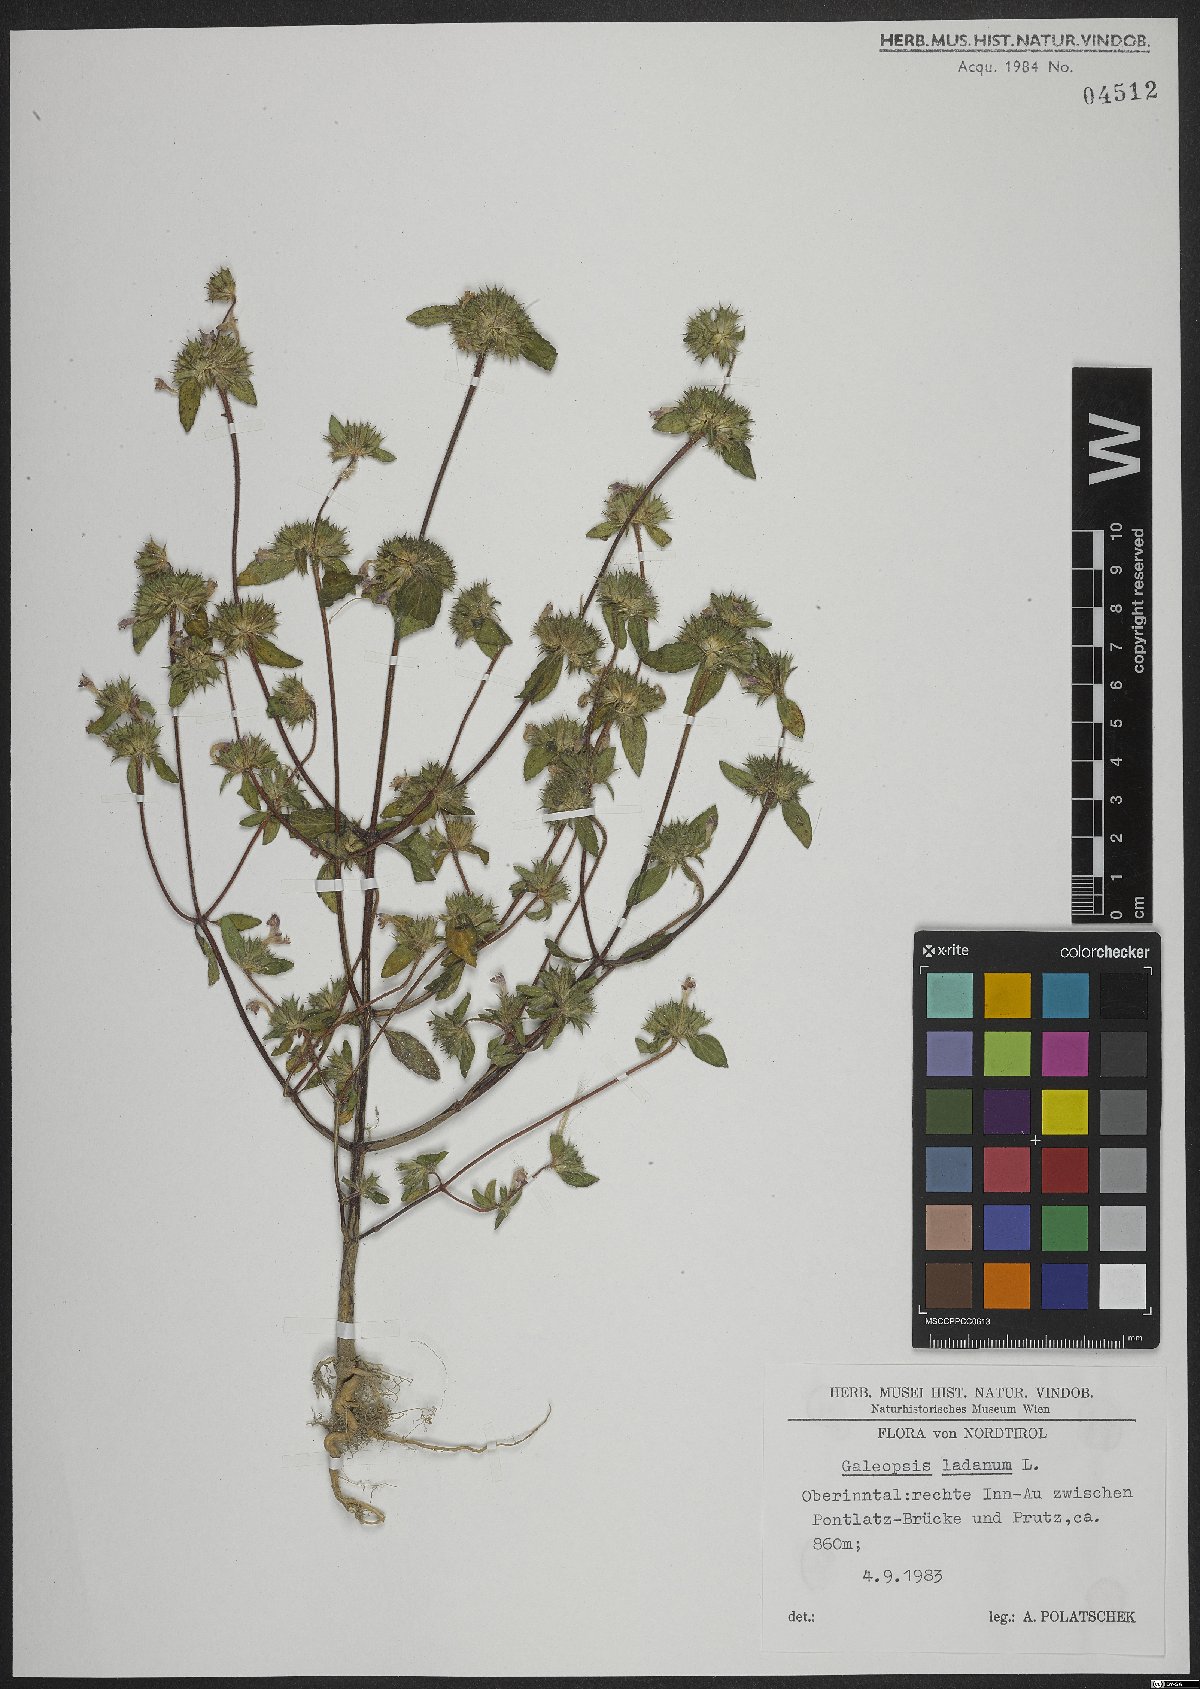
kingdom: Plantae
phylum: Tracheophyta
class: Magnoliopsida
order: Lamiales
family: Lamiaceae
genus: Galeopsis
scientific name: Galeopsis ladanum
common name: Broad-leaved hemp-nettle
